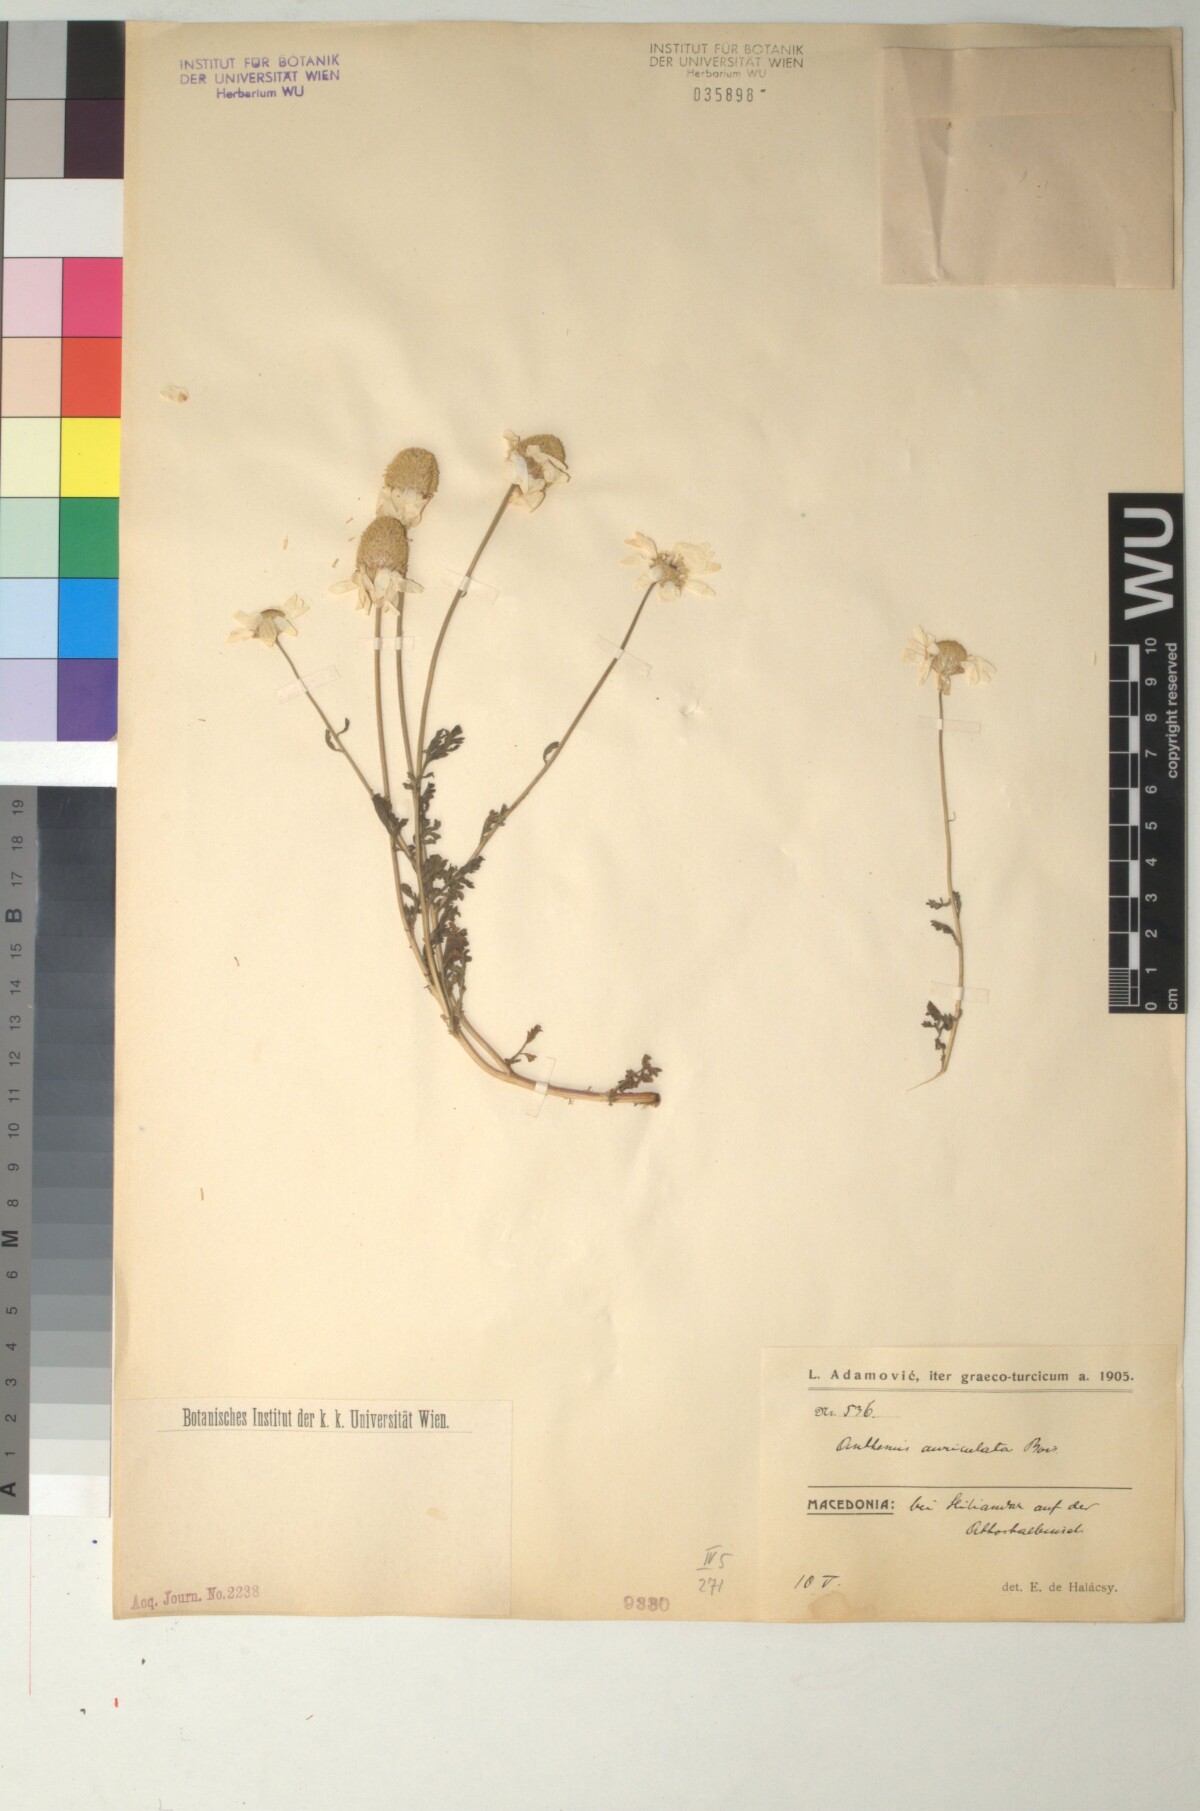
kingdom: Plantae
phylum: Tracheophyta
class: Magnoliopsida
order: Asterales
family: Asteraceae
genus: Anthemis
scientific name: Anthemis auriculata
